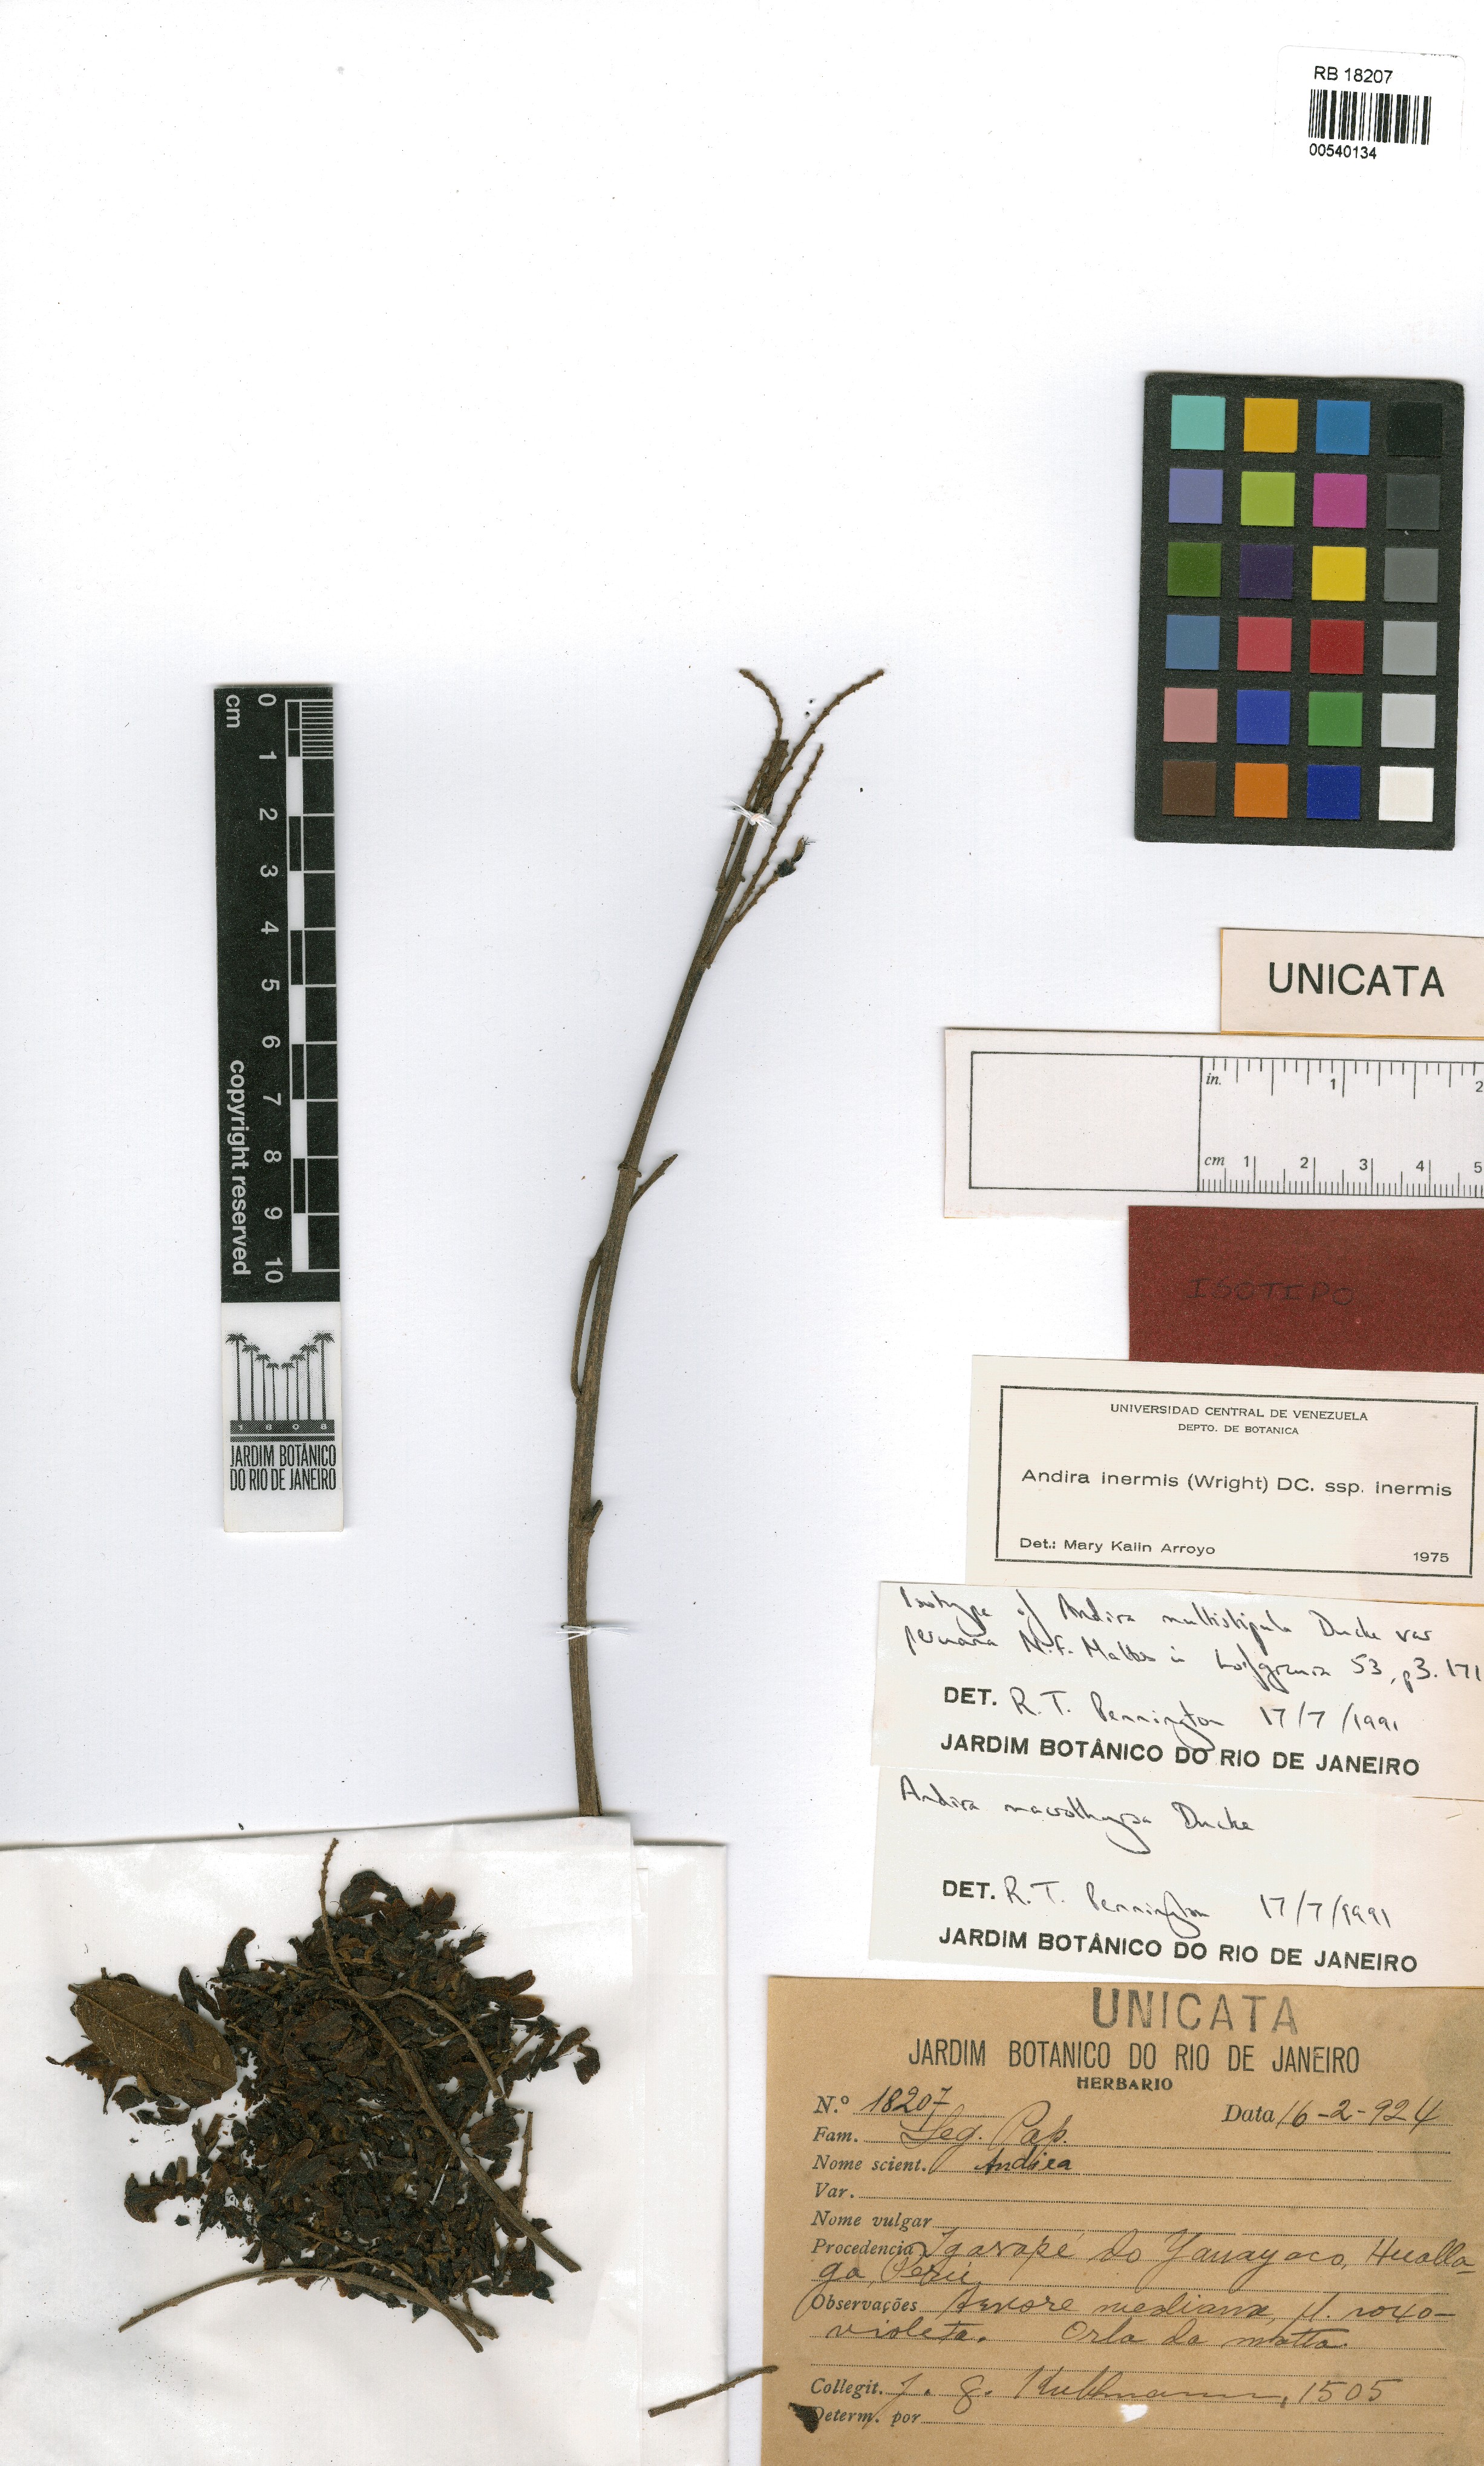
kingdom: Plantae
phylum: Tracheophyta
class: Magnoliopsida
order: Fabales
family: Fabaceae
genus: Andira
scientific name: Andira macrothyrsa
